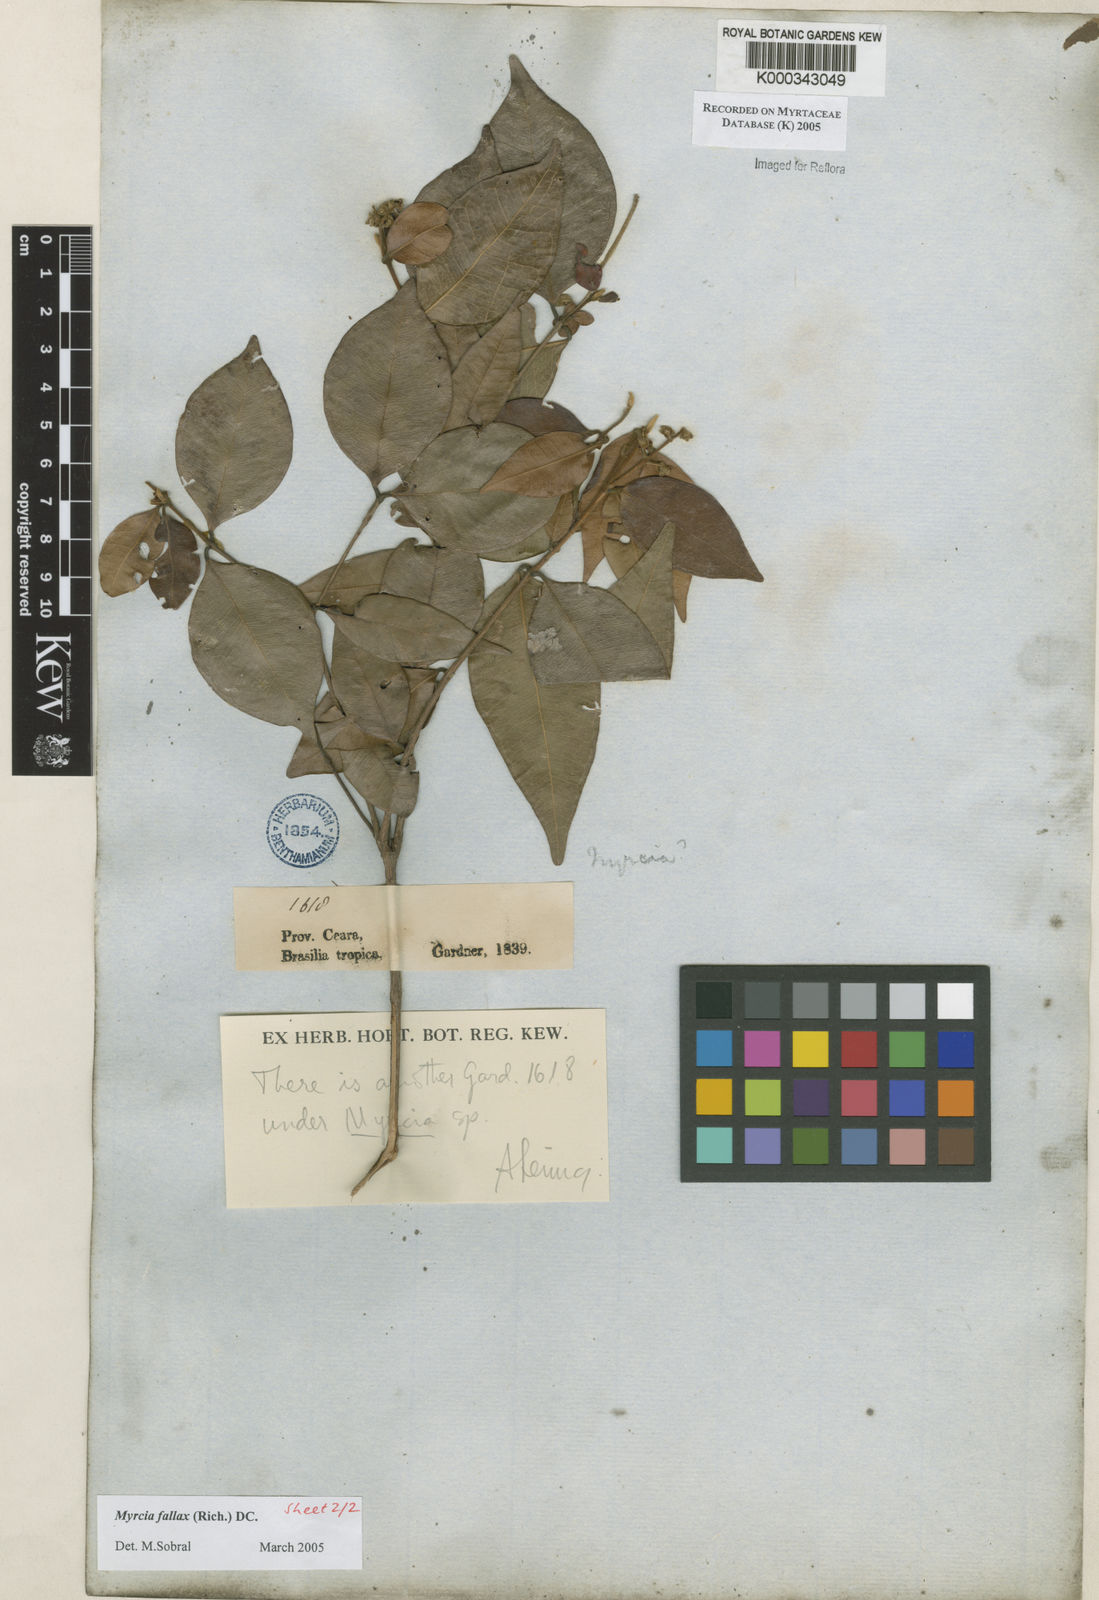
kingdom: Plantae
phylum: Tracheophyta
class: Magnoliopsida
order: Myrtales
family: Myrtaceae
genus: Myrcia
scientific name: Myrcia splendens
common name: Surinam cherry
